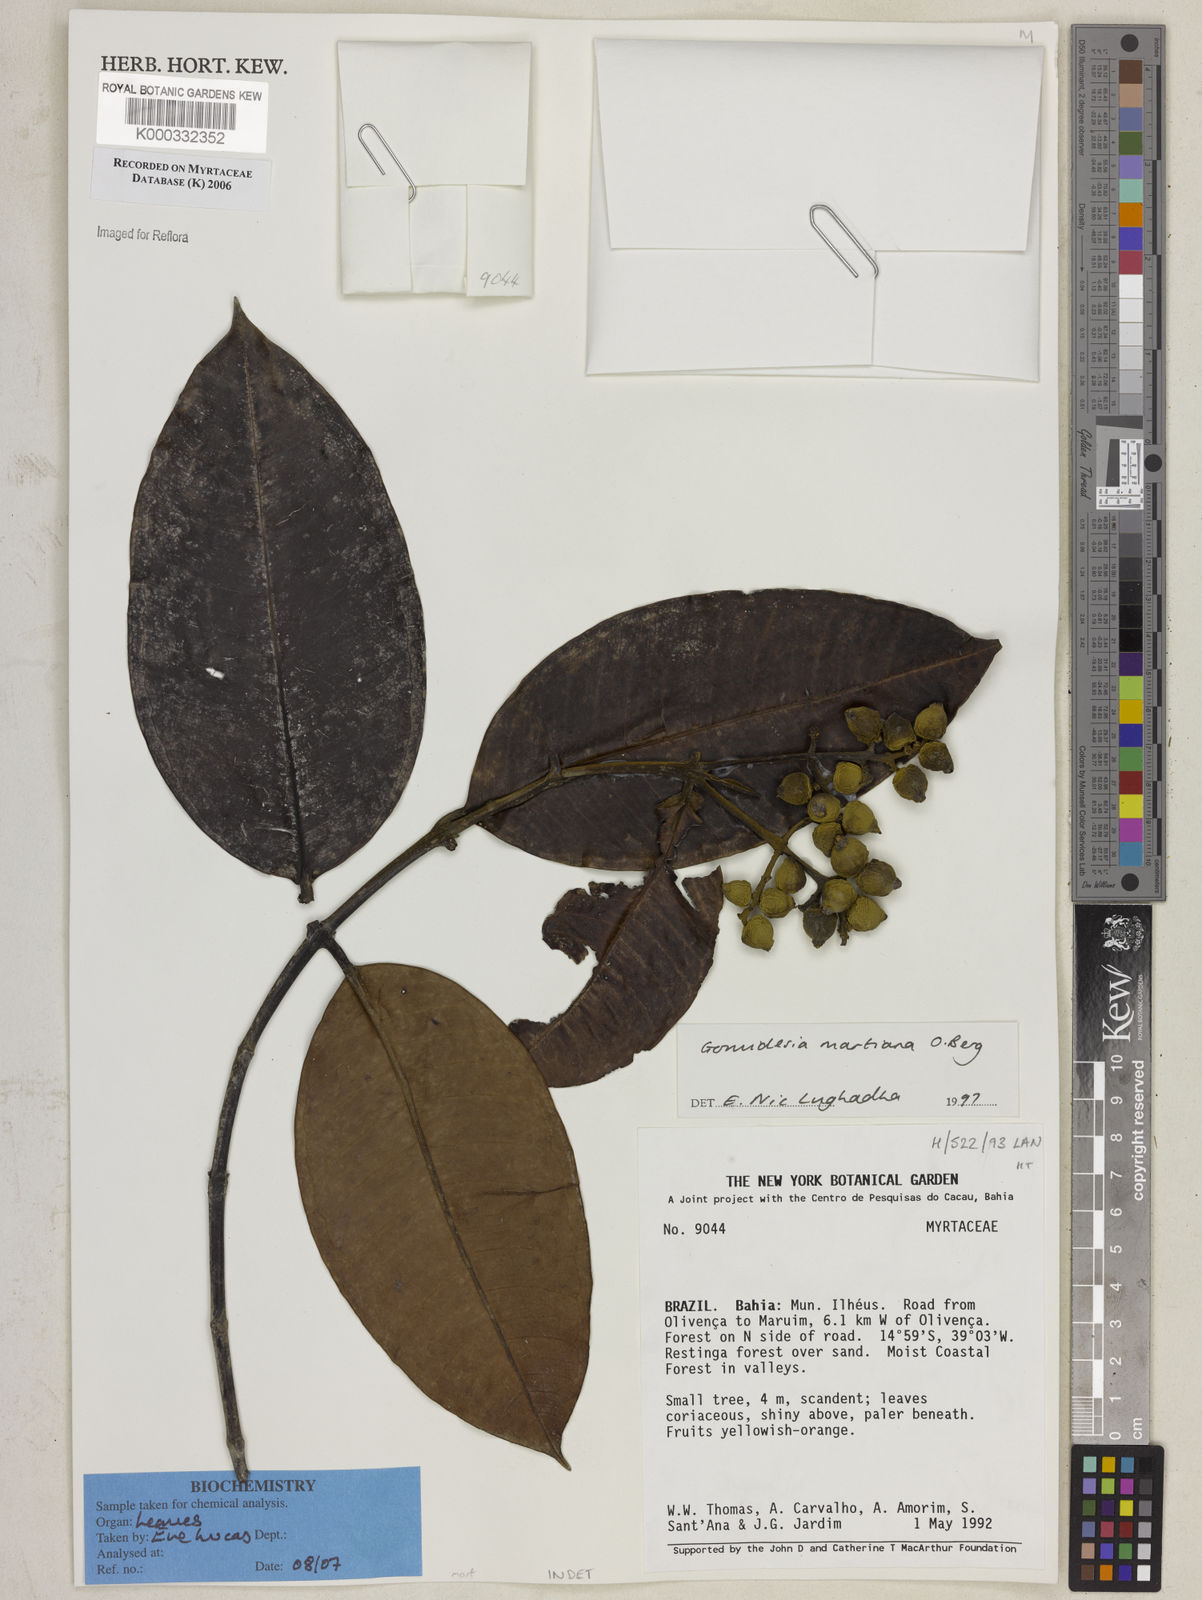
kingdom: Plantae
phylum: Tracheophyta
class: Magnoliopsida
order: Myrtales
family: Myrtaceae
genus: Myrcia
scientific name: Myrcia vittoriana
